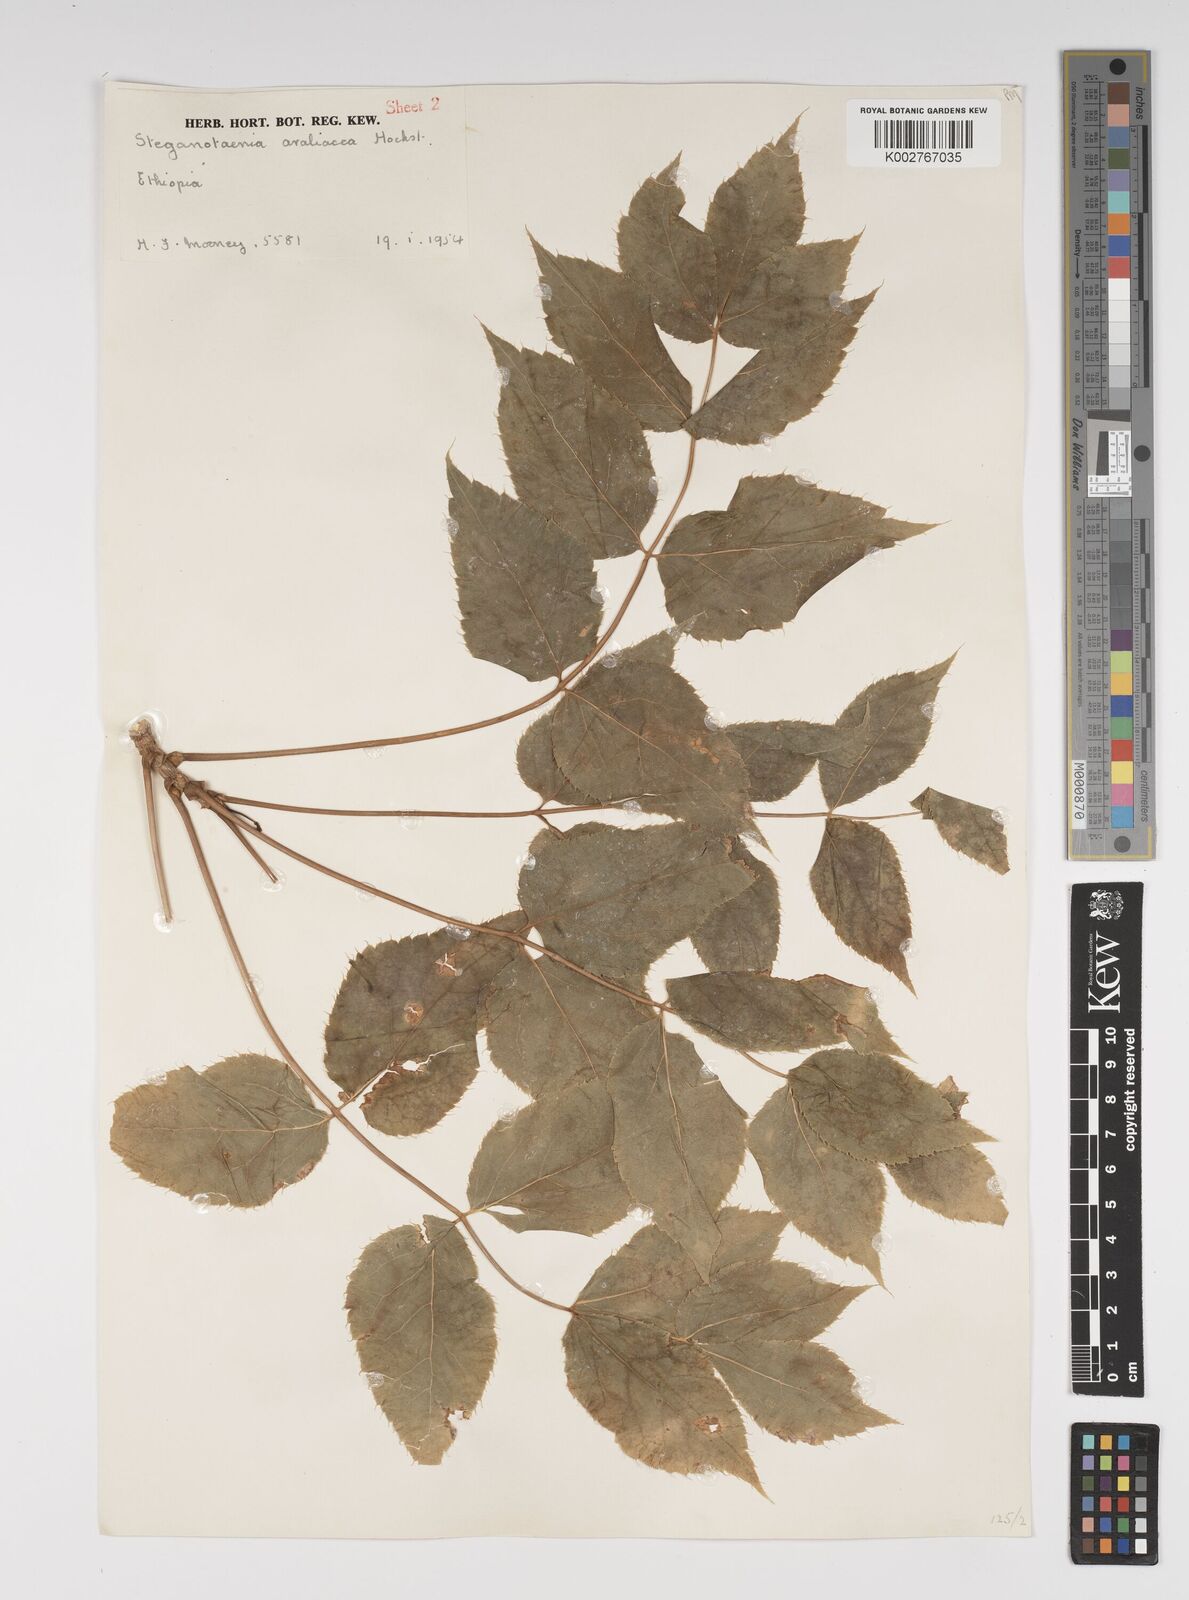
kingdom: Plantae
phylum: Tracheophyta
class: Magnoliopsida
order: Apiales
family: Apiaceae
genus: Steganotaenia
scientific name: Steganotaenia araliacea
